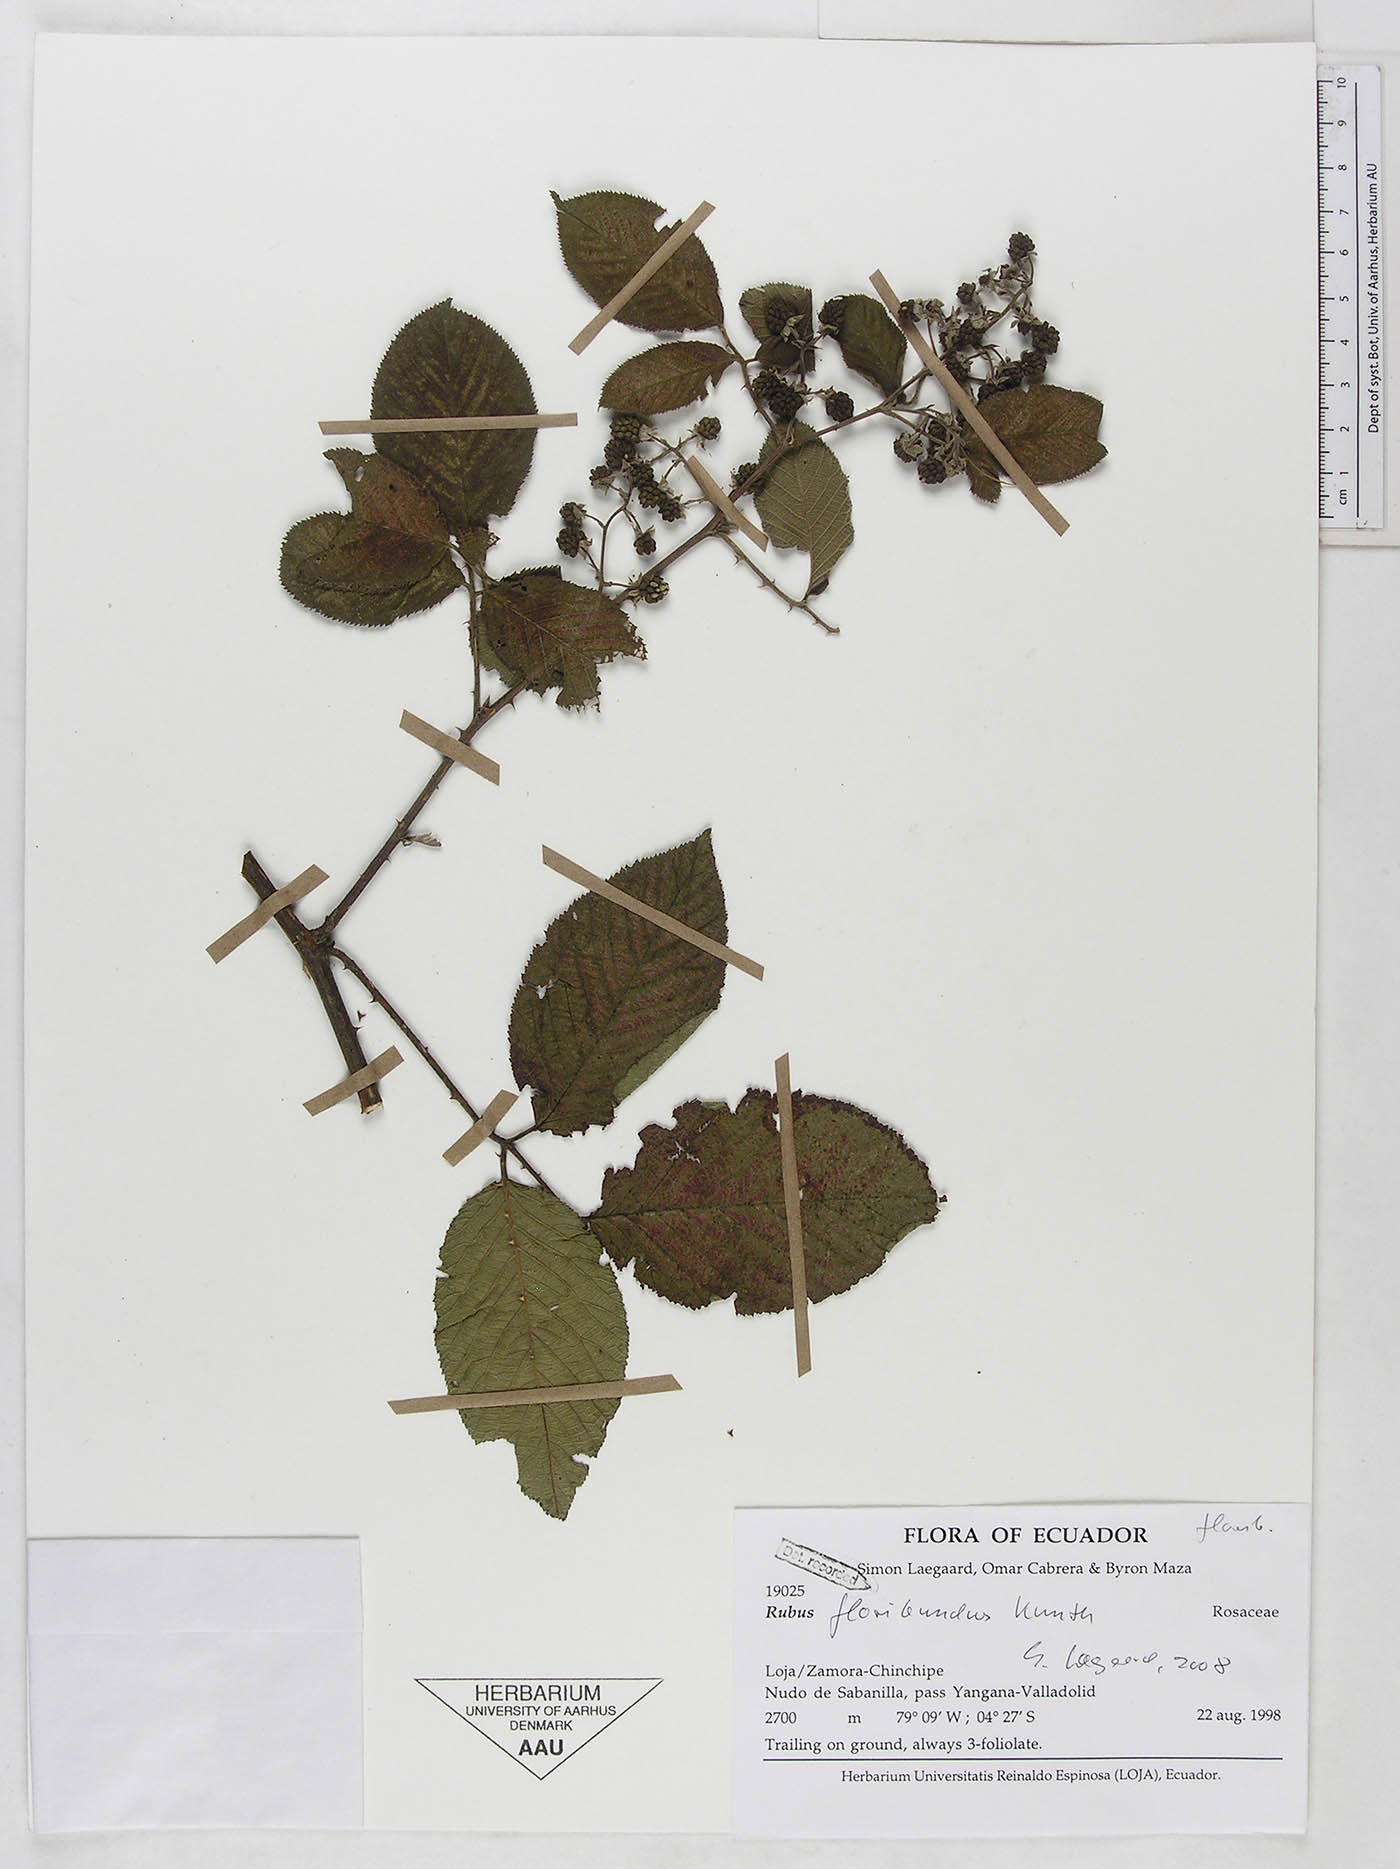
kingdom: Plantae
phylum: Tracheophyta
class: Magnoliopsida
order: Rosales
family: Rosaceae
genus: Rubus
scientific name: Rubus floribundus
